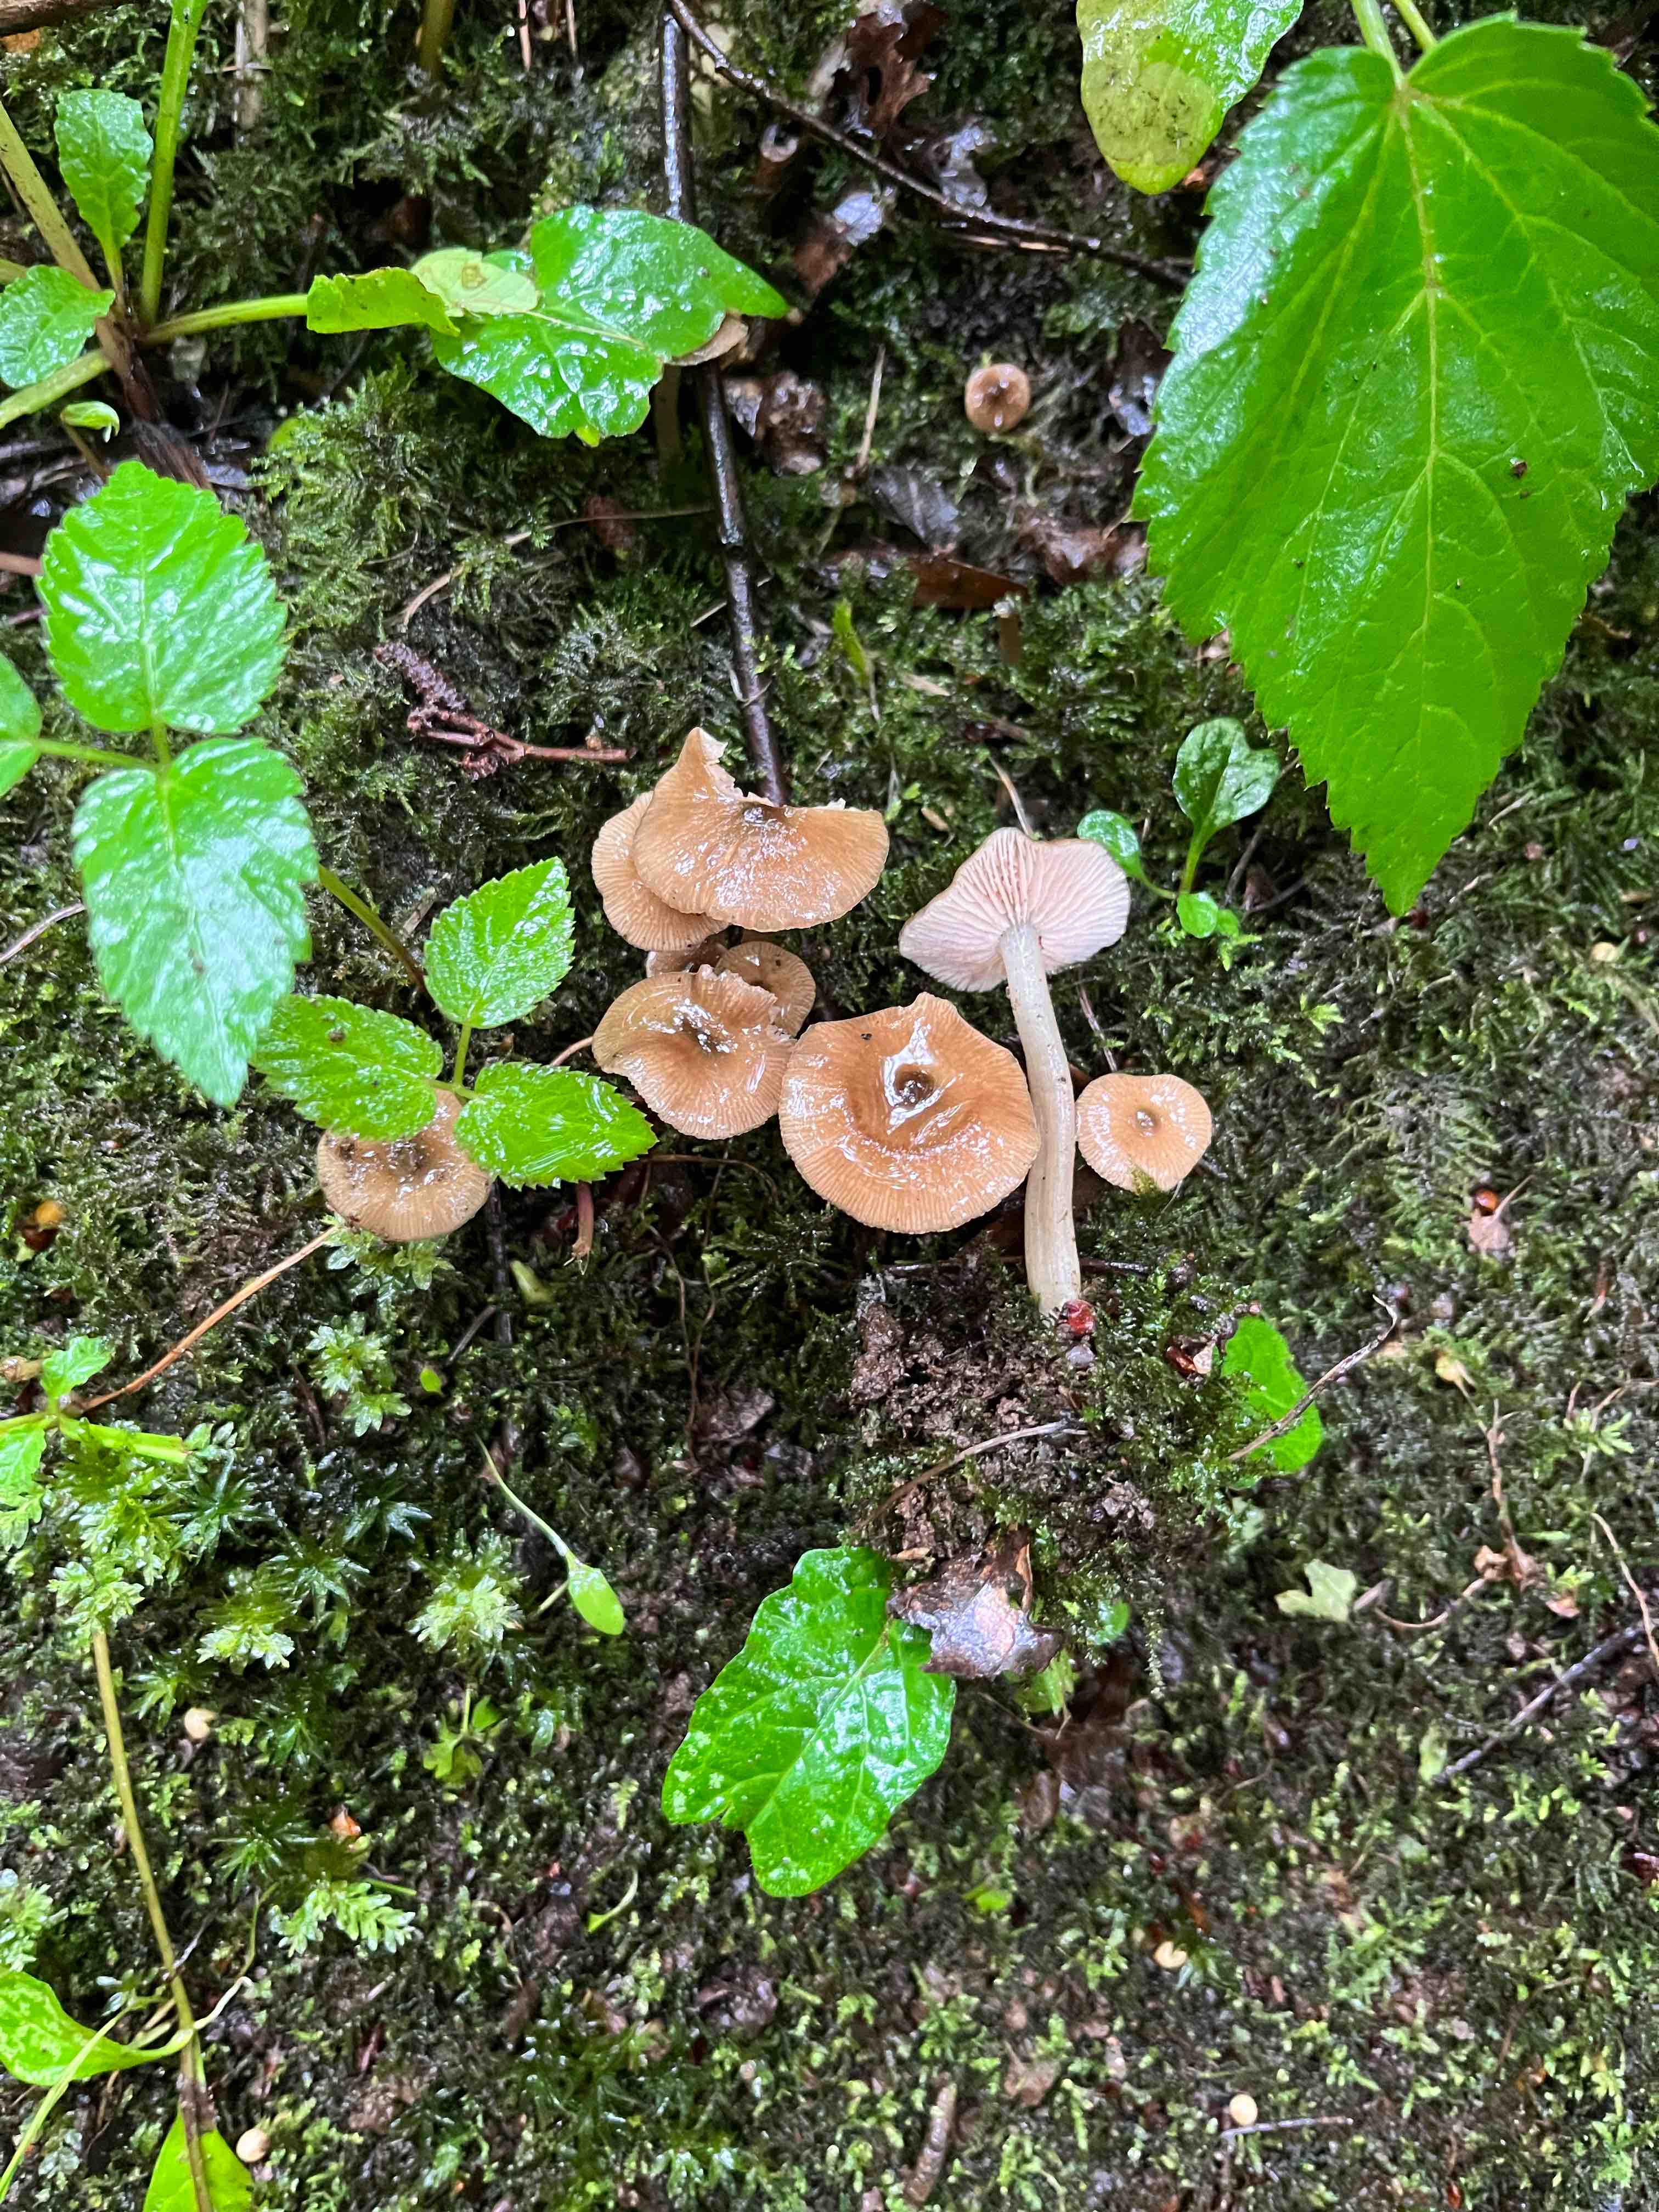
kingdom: Fungi
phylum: Basidiomycota
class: Agaricomycetes
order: Agaricales
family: Entolomataceae
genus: Entoloma
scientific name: Entoloma
